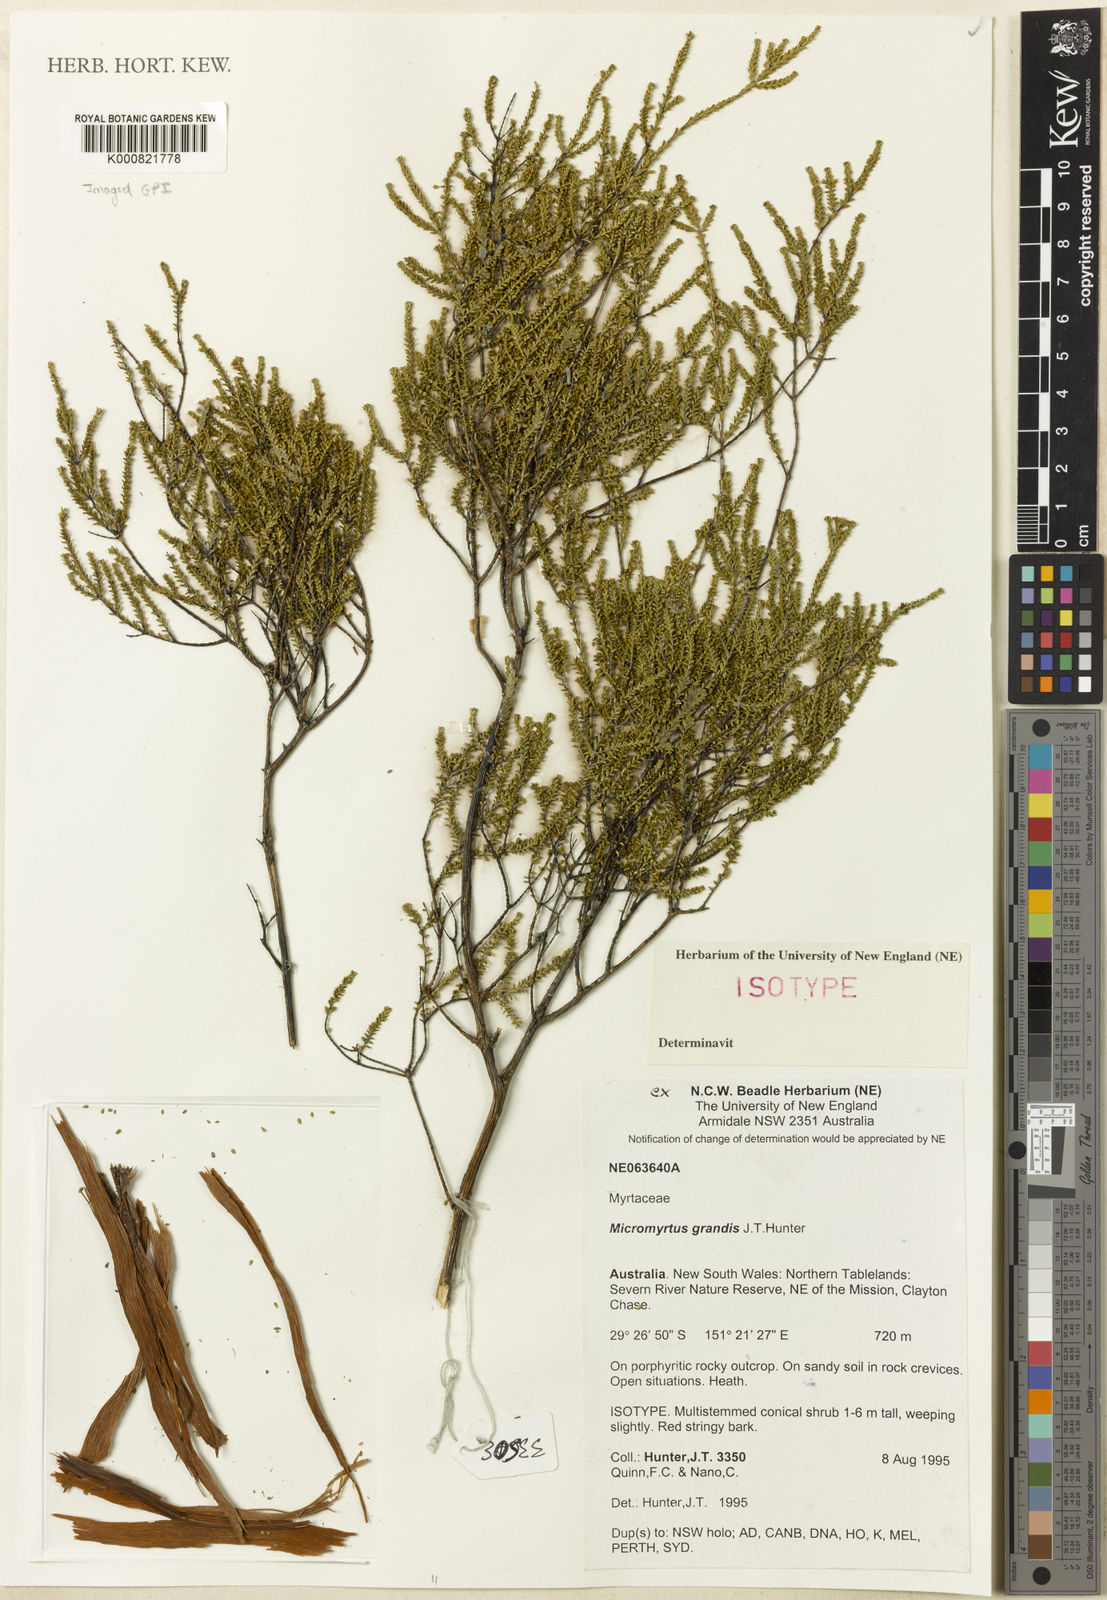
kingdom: Plantae
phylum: Tracheophyta
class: Magnoliopsida
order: Myrtales
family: Myrtaceae
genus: Micromyrtus
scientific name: Micromyrtus grandis
